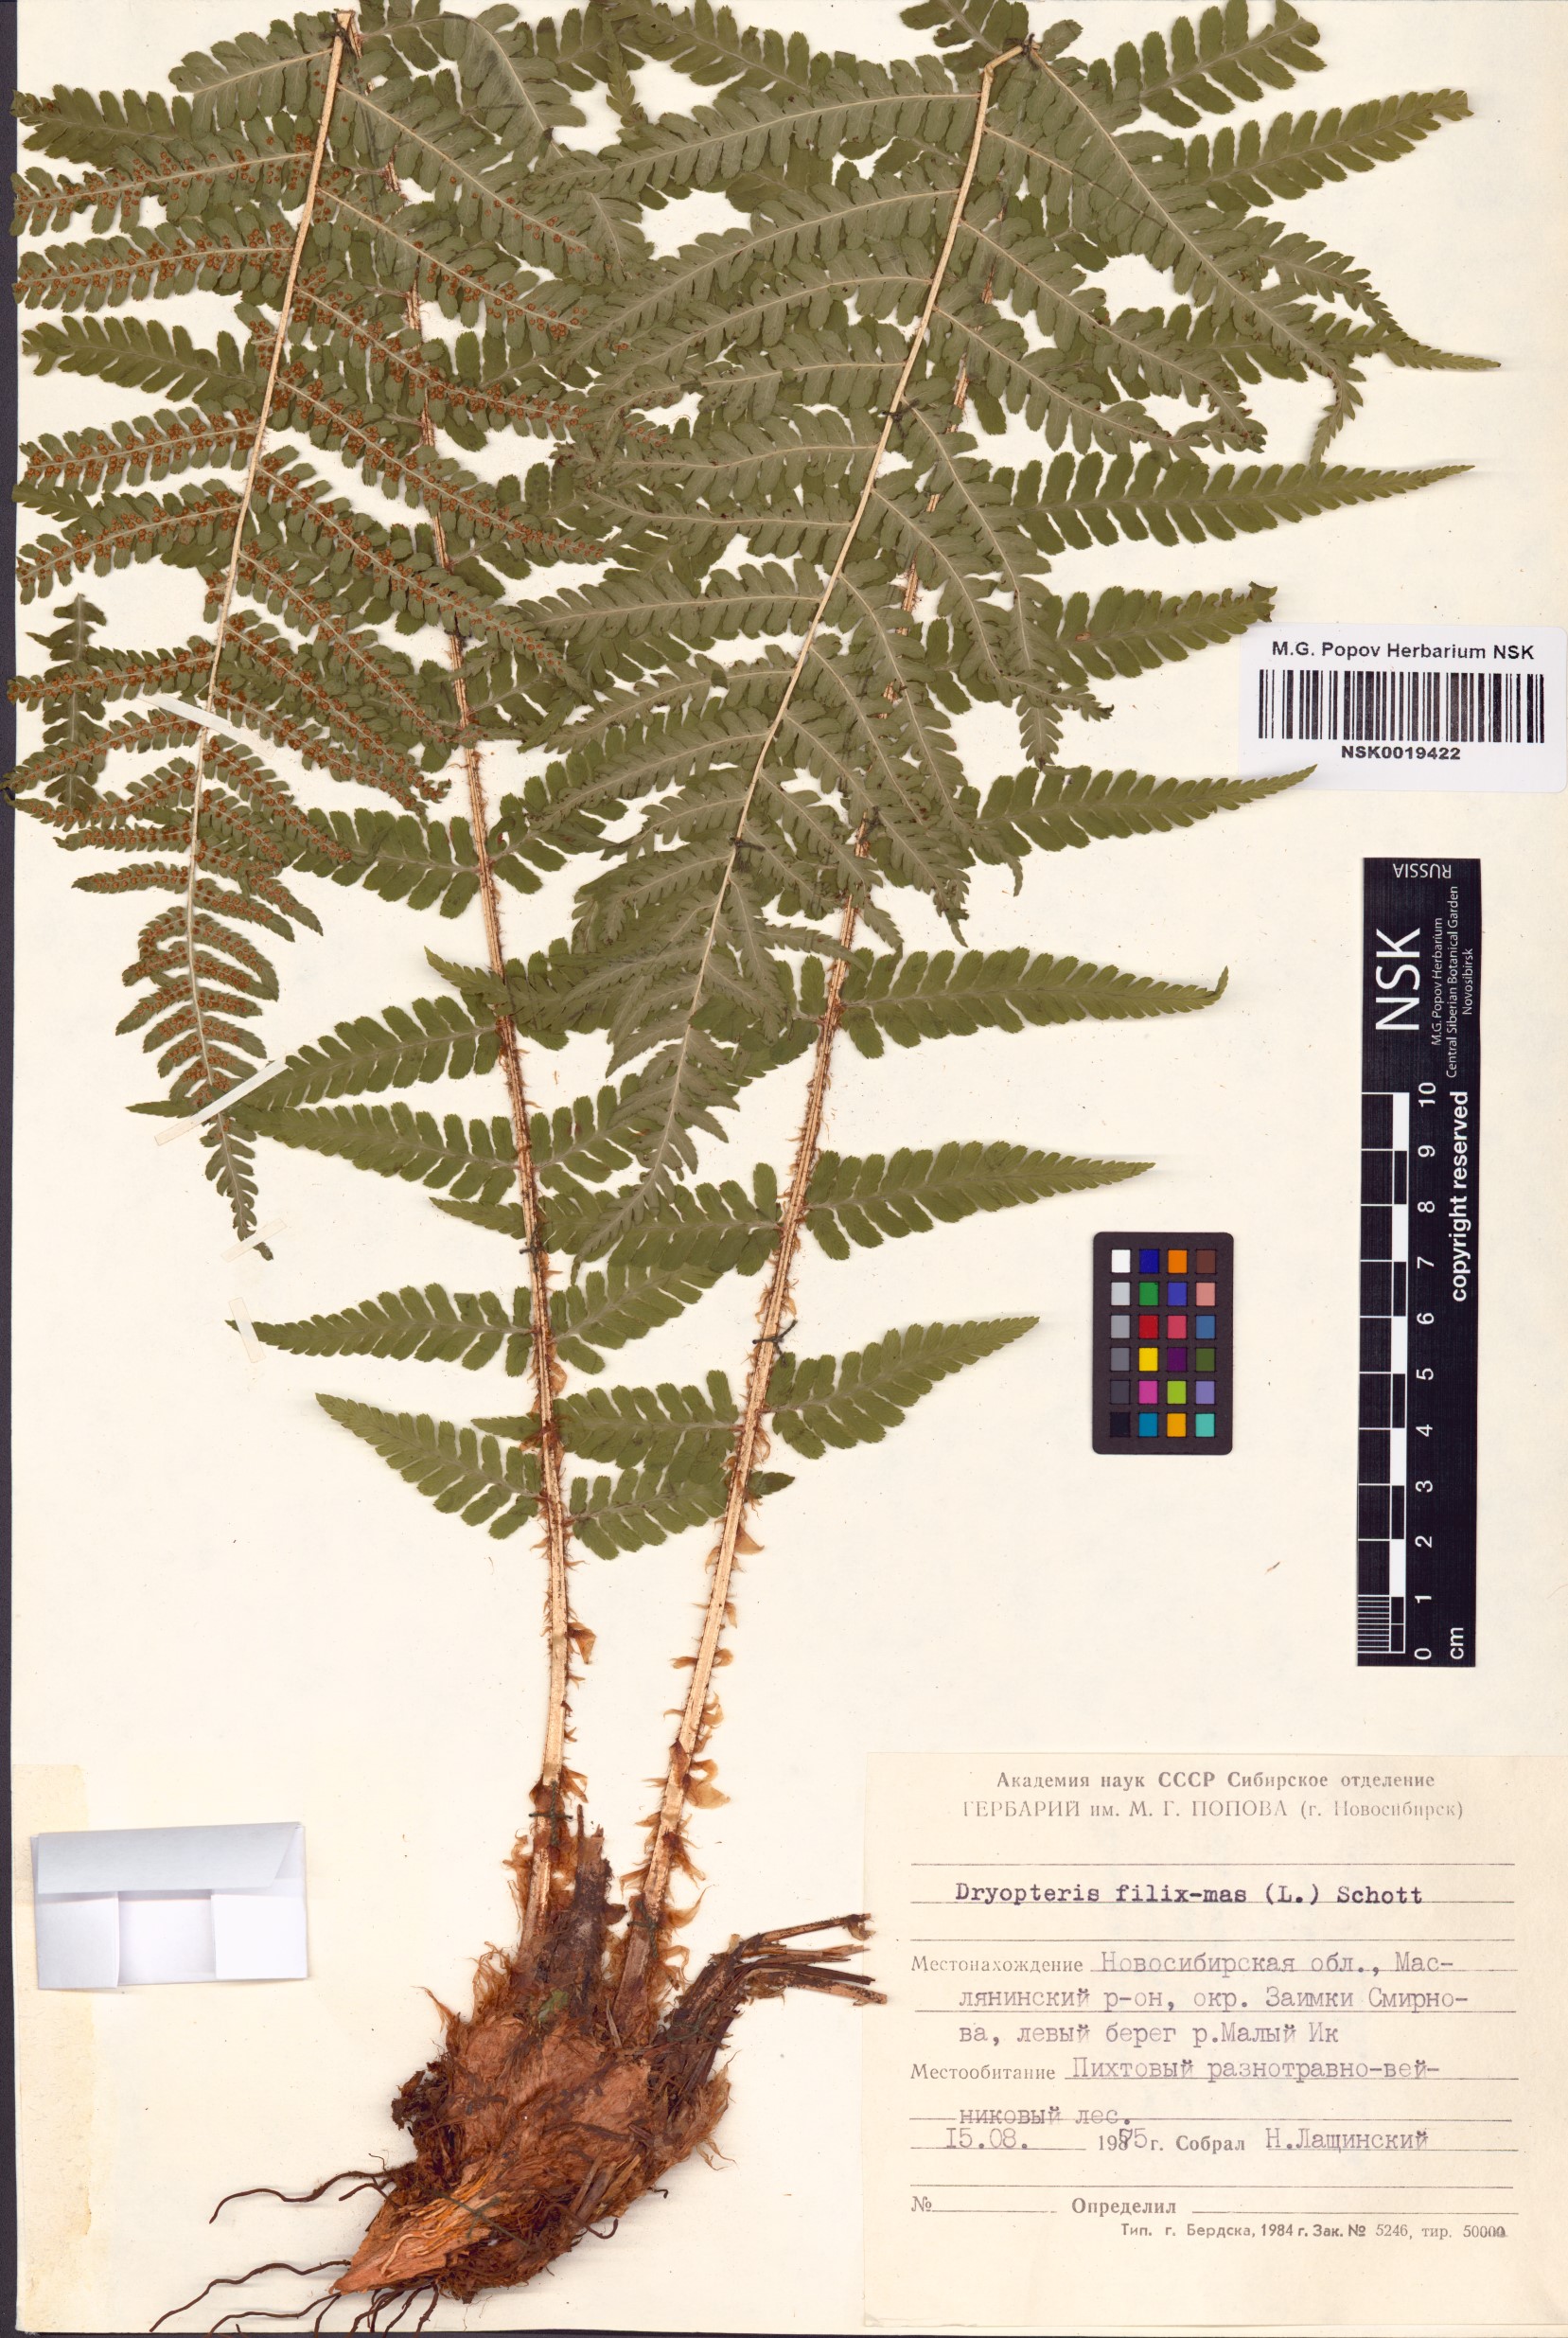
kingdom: Plantae
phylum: Tracheophyta
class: Polypodiopsida
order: Polypodiales
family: Dryopteridaceae
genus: Dryopteris
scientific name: Dryopteris filix-mas
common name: Male fern
